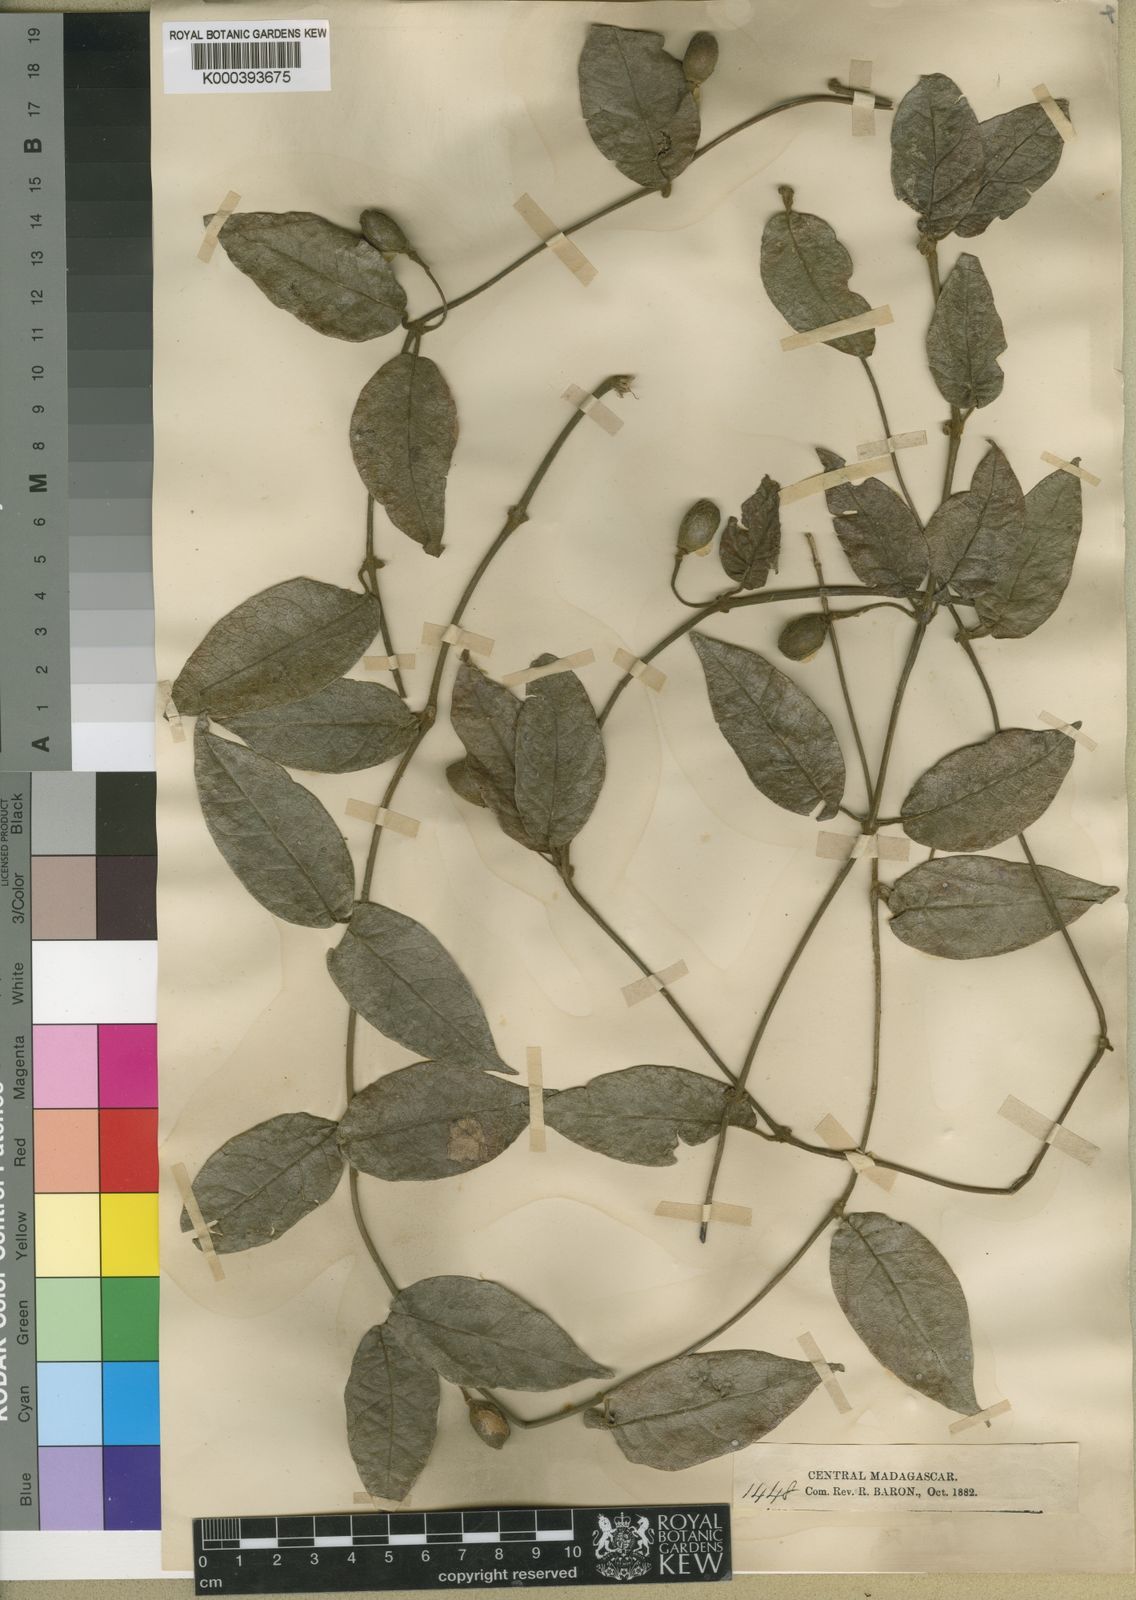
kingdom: Plantae
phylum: Tracheophyta
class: Magnoliopsida
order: Lamiales
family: Acanthaceae
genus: Mendoncia
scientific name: Mendoncia cowanii
